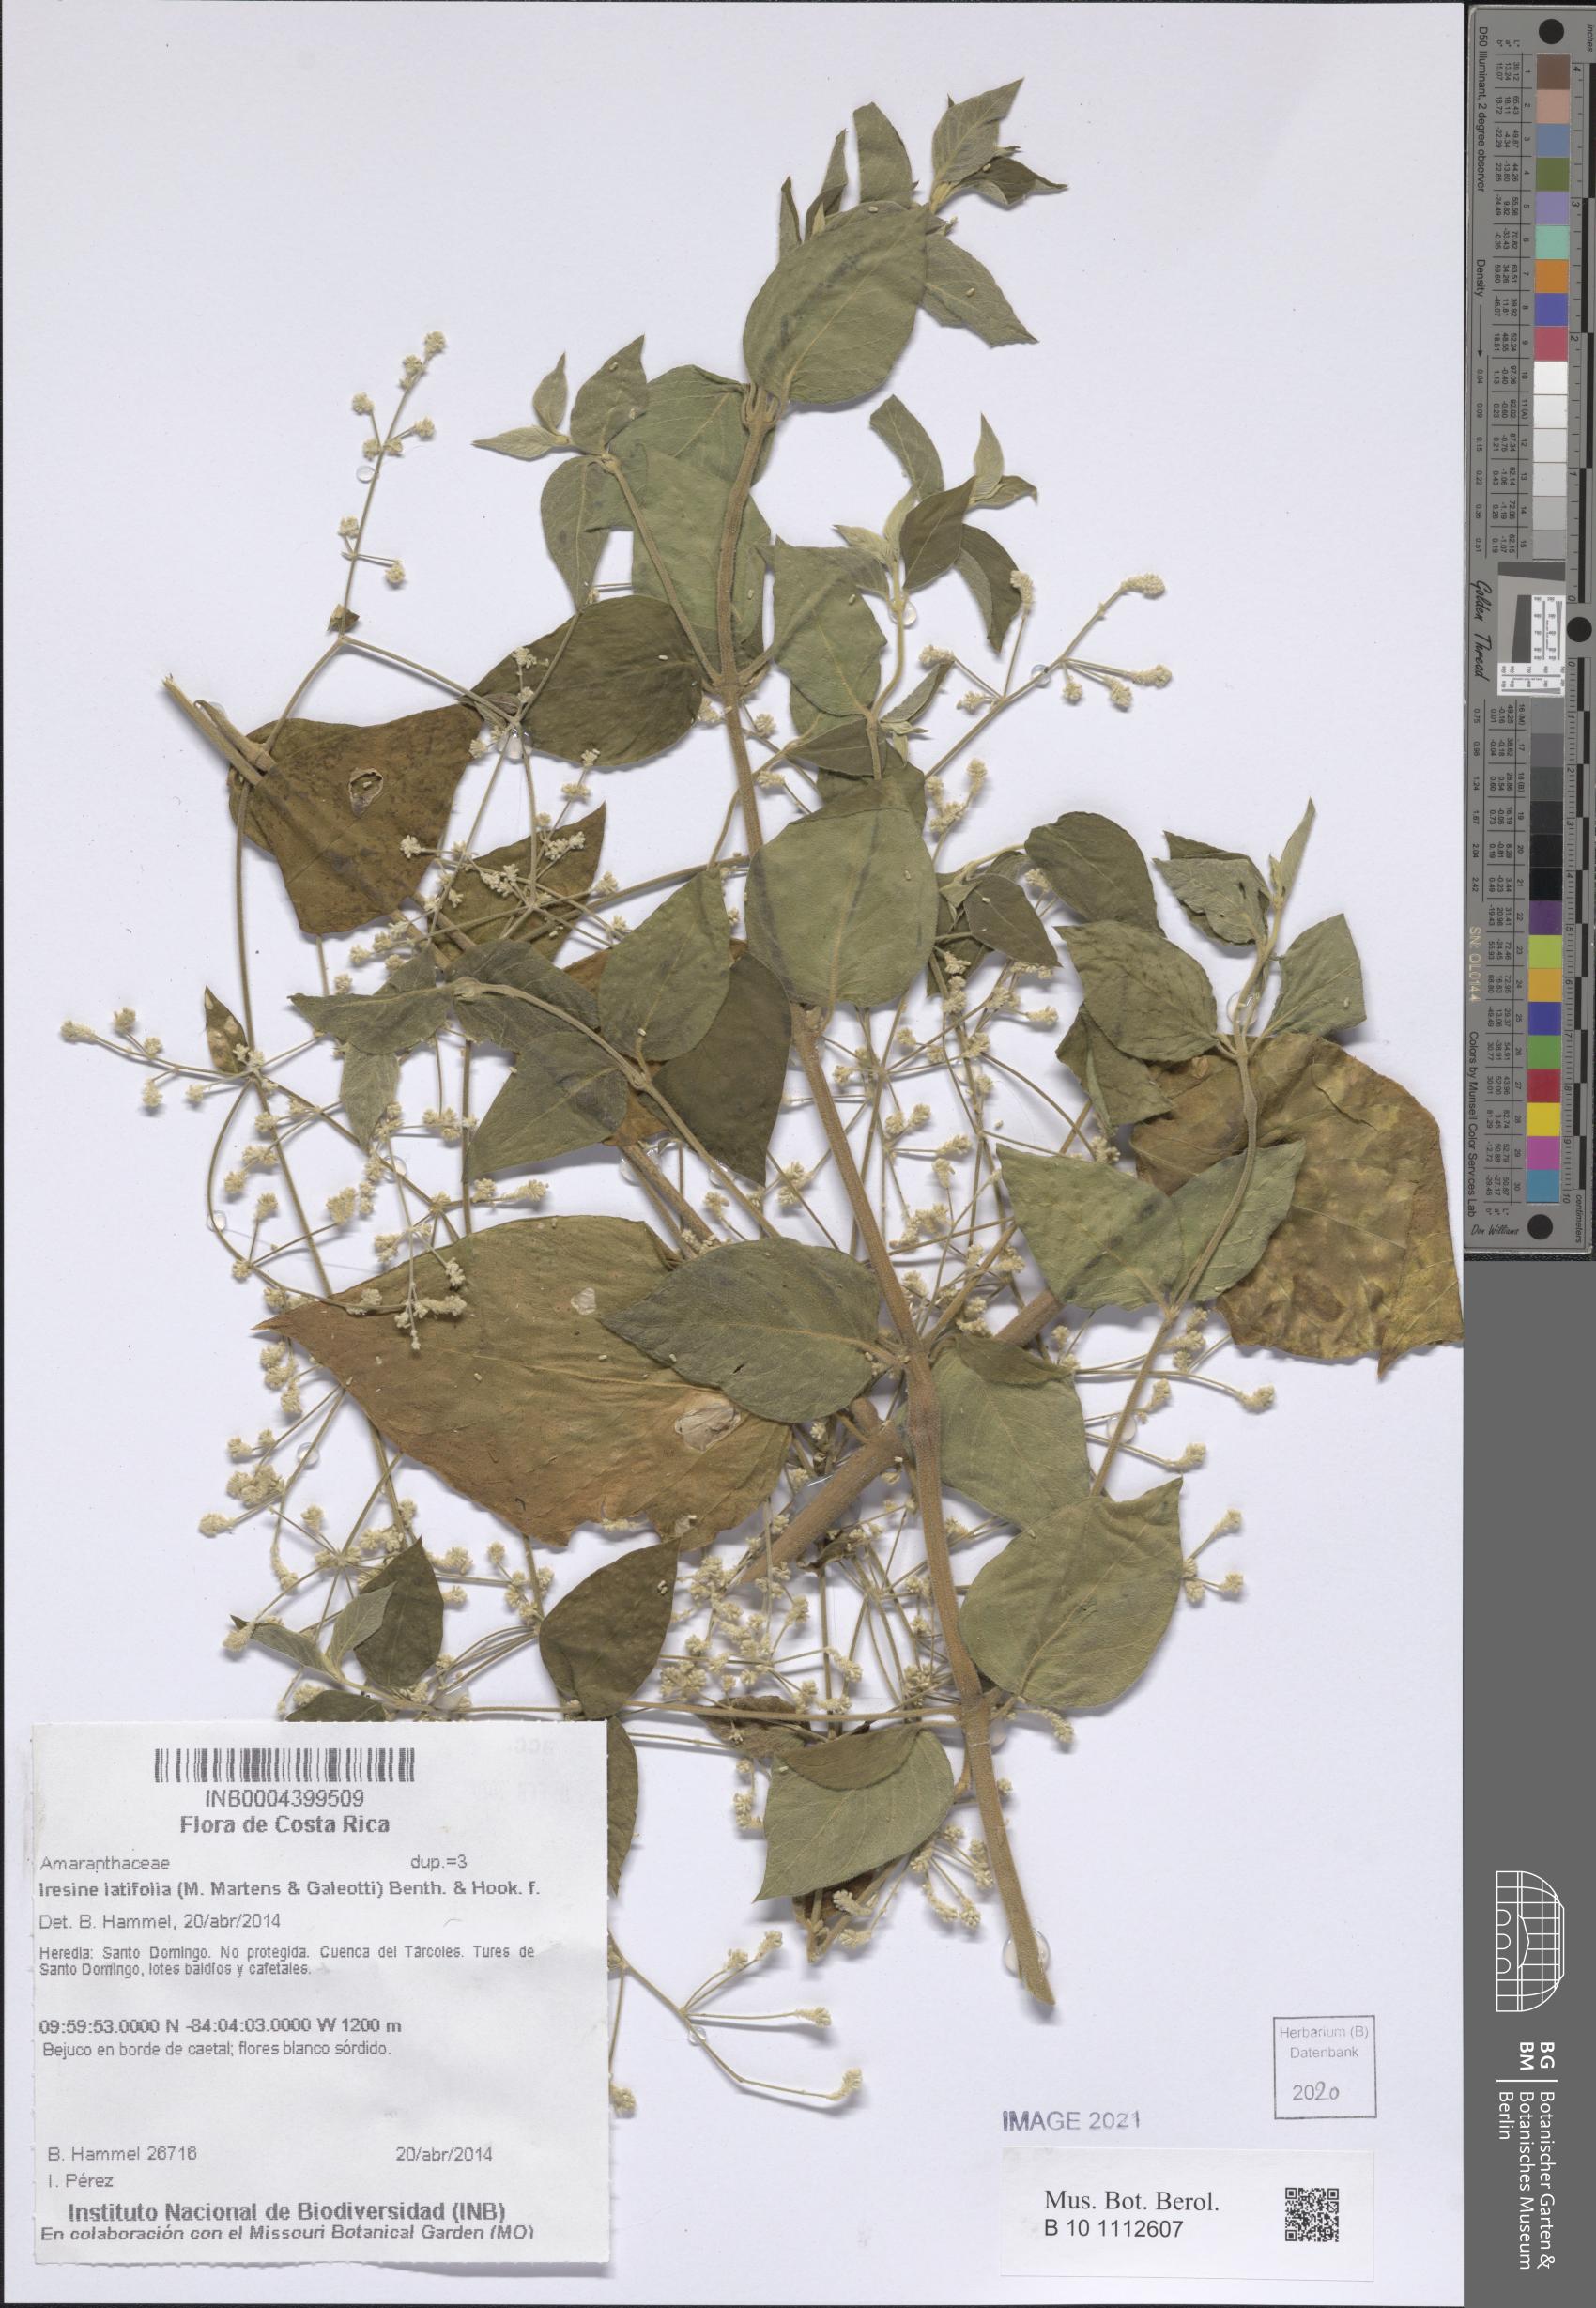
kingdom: Plantae
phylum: Tracheophyta
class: Magnoliopsida
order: Caryophyllales
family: Amaranthaceae
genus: Iresine
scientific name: Iresine latifolia
